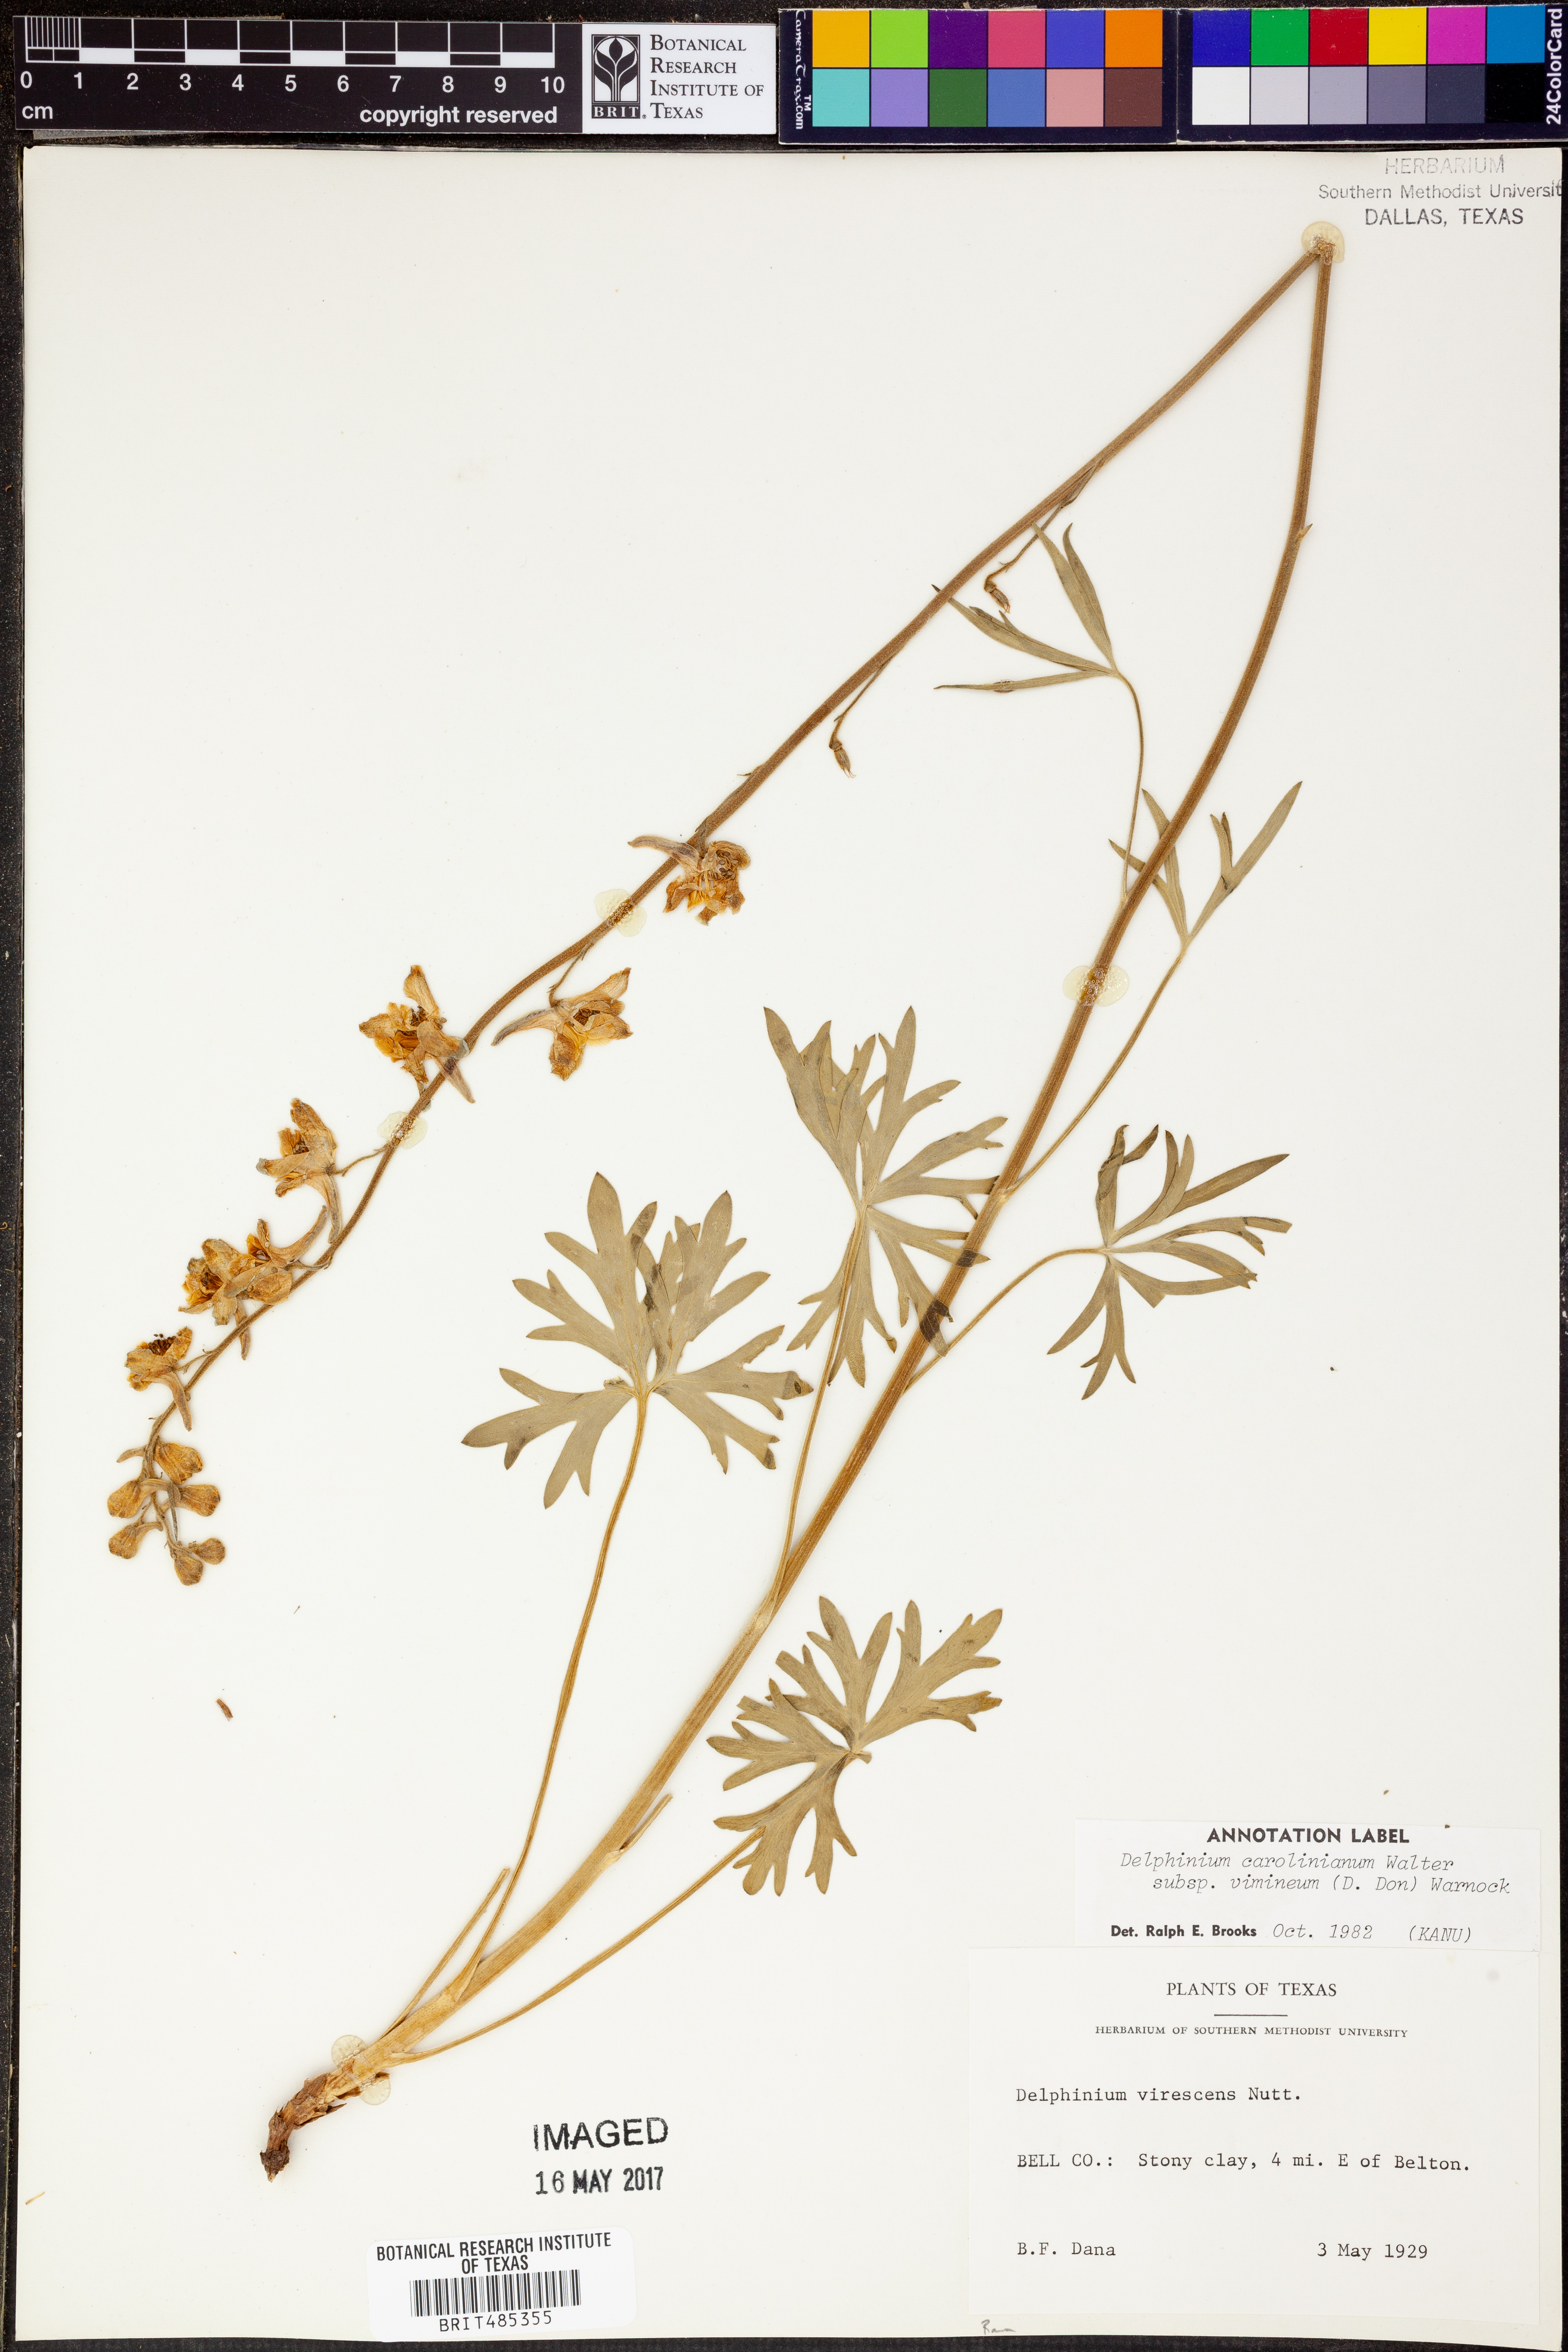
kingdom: Plantae
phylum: Tracheophyta
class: Magnoliopsida
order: Ranunculales
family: Ranunculaceae
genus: Delphinium
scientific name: Delphinium carolinianum
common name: Carolina larkspur
